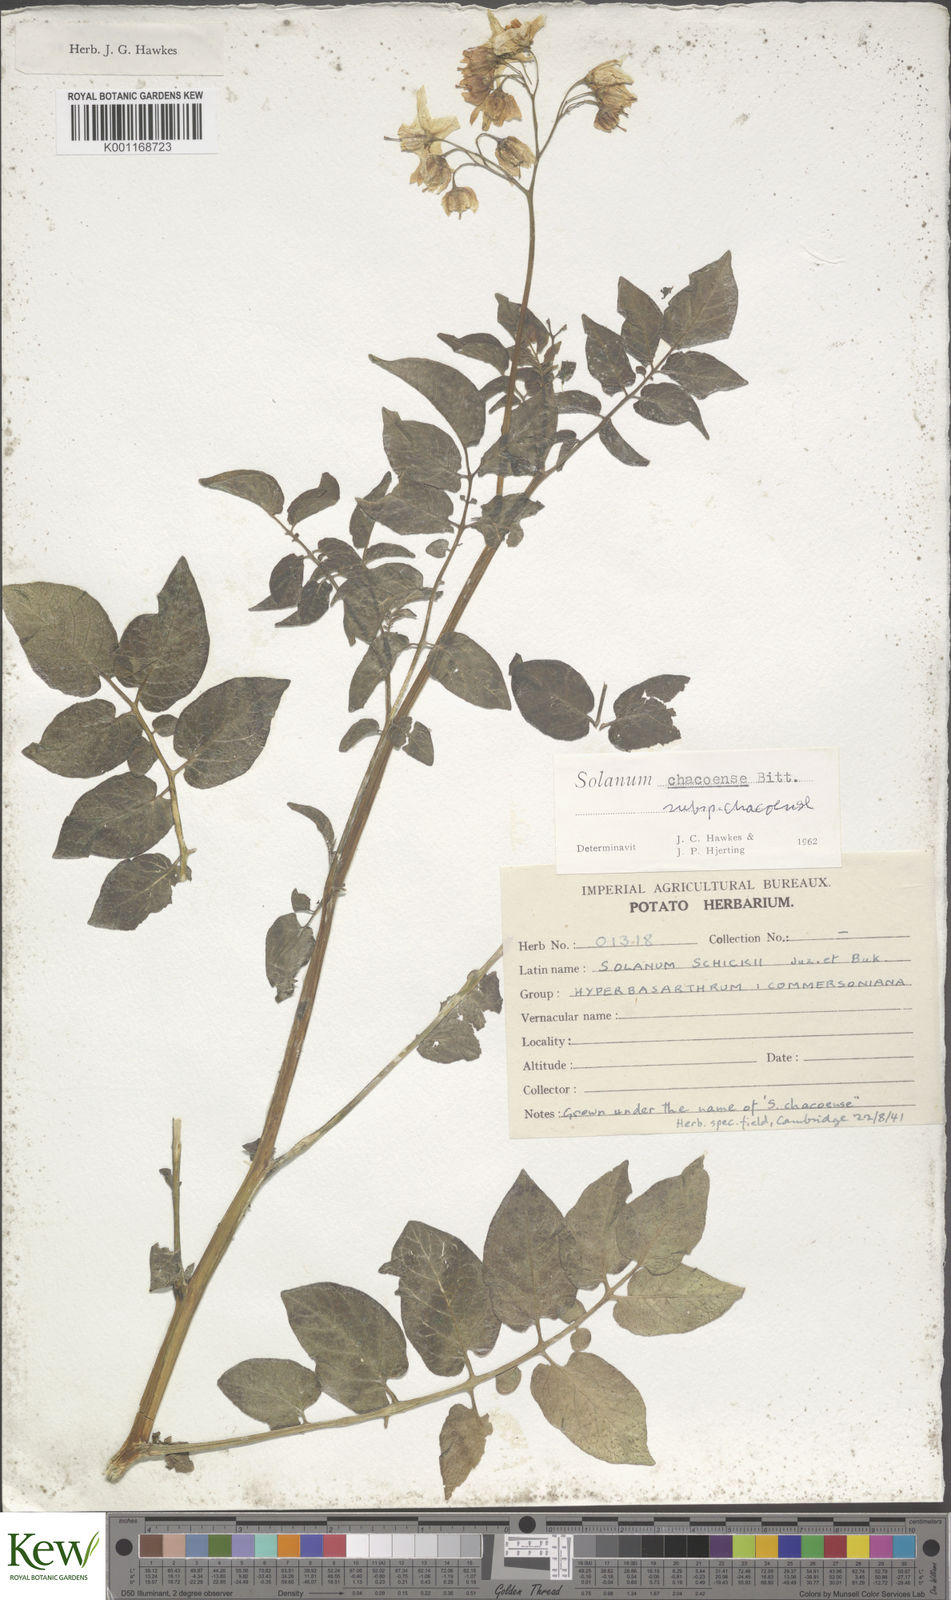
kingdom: Plantae
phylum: Tracheophyta
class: Magnoliopsida
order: Solanales
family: Solanaceae
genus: Solanum
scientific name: Solanum chacoense
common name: Chaco potato
